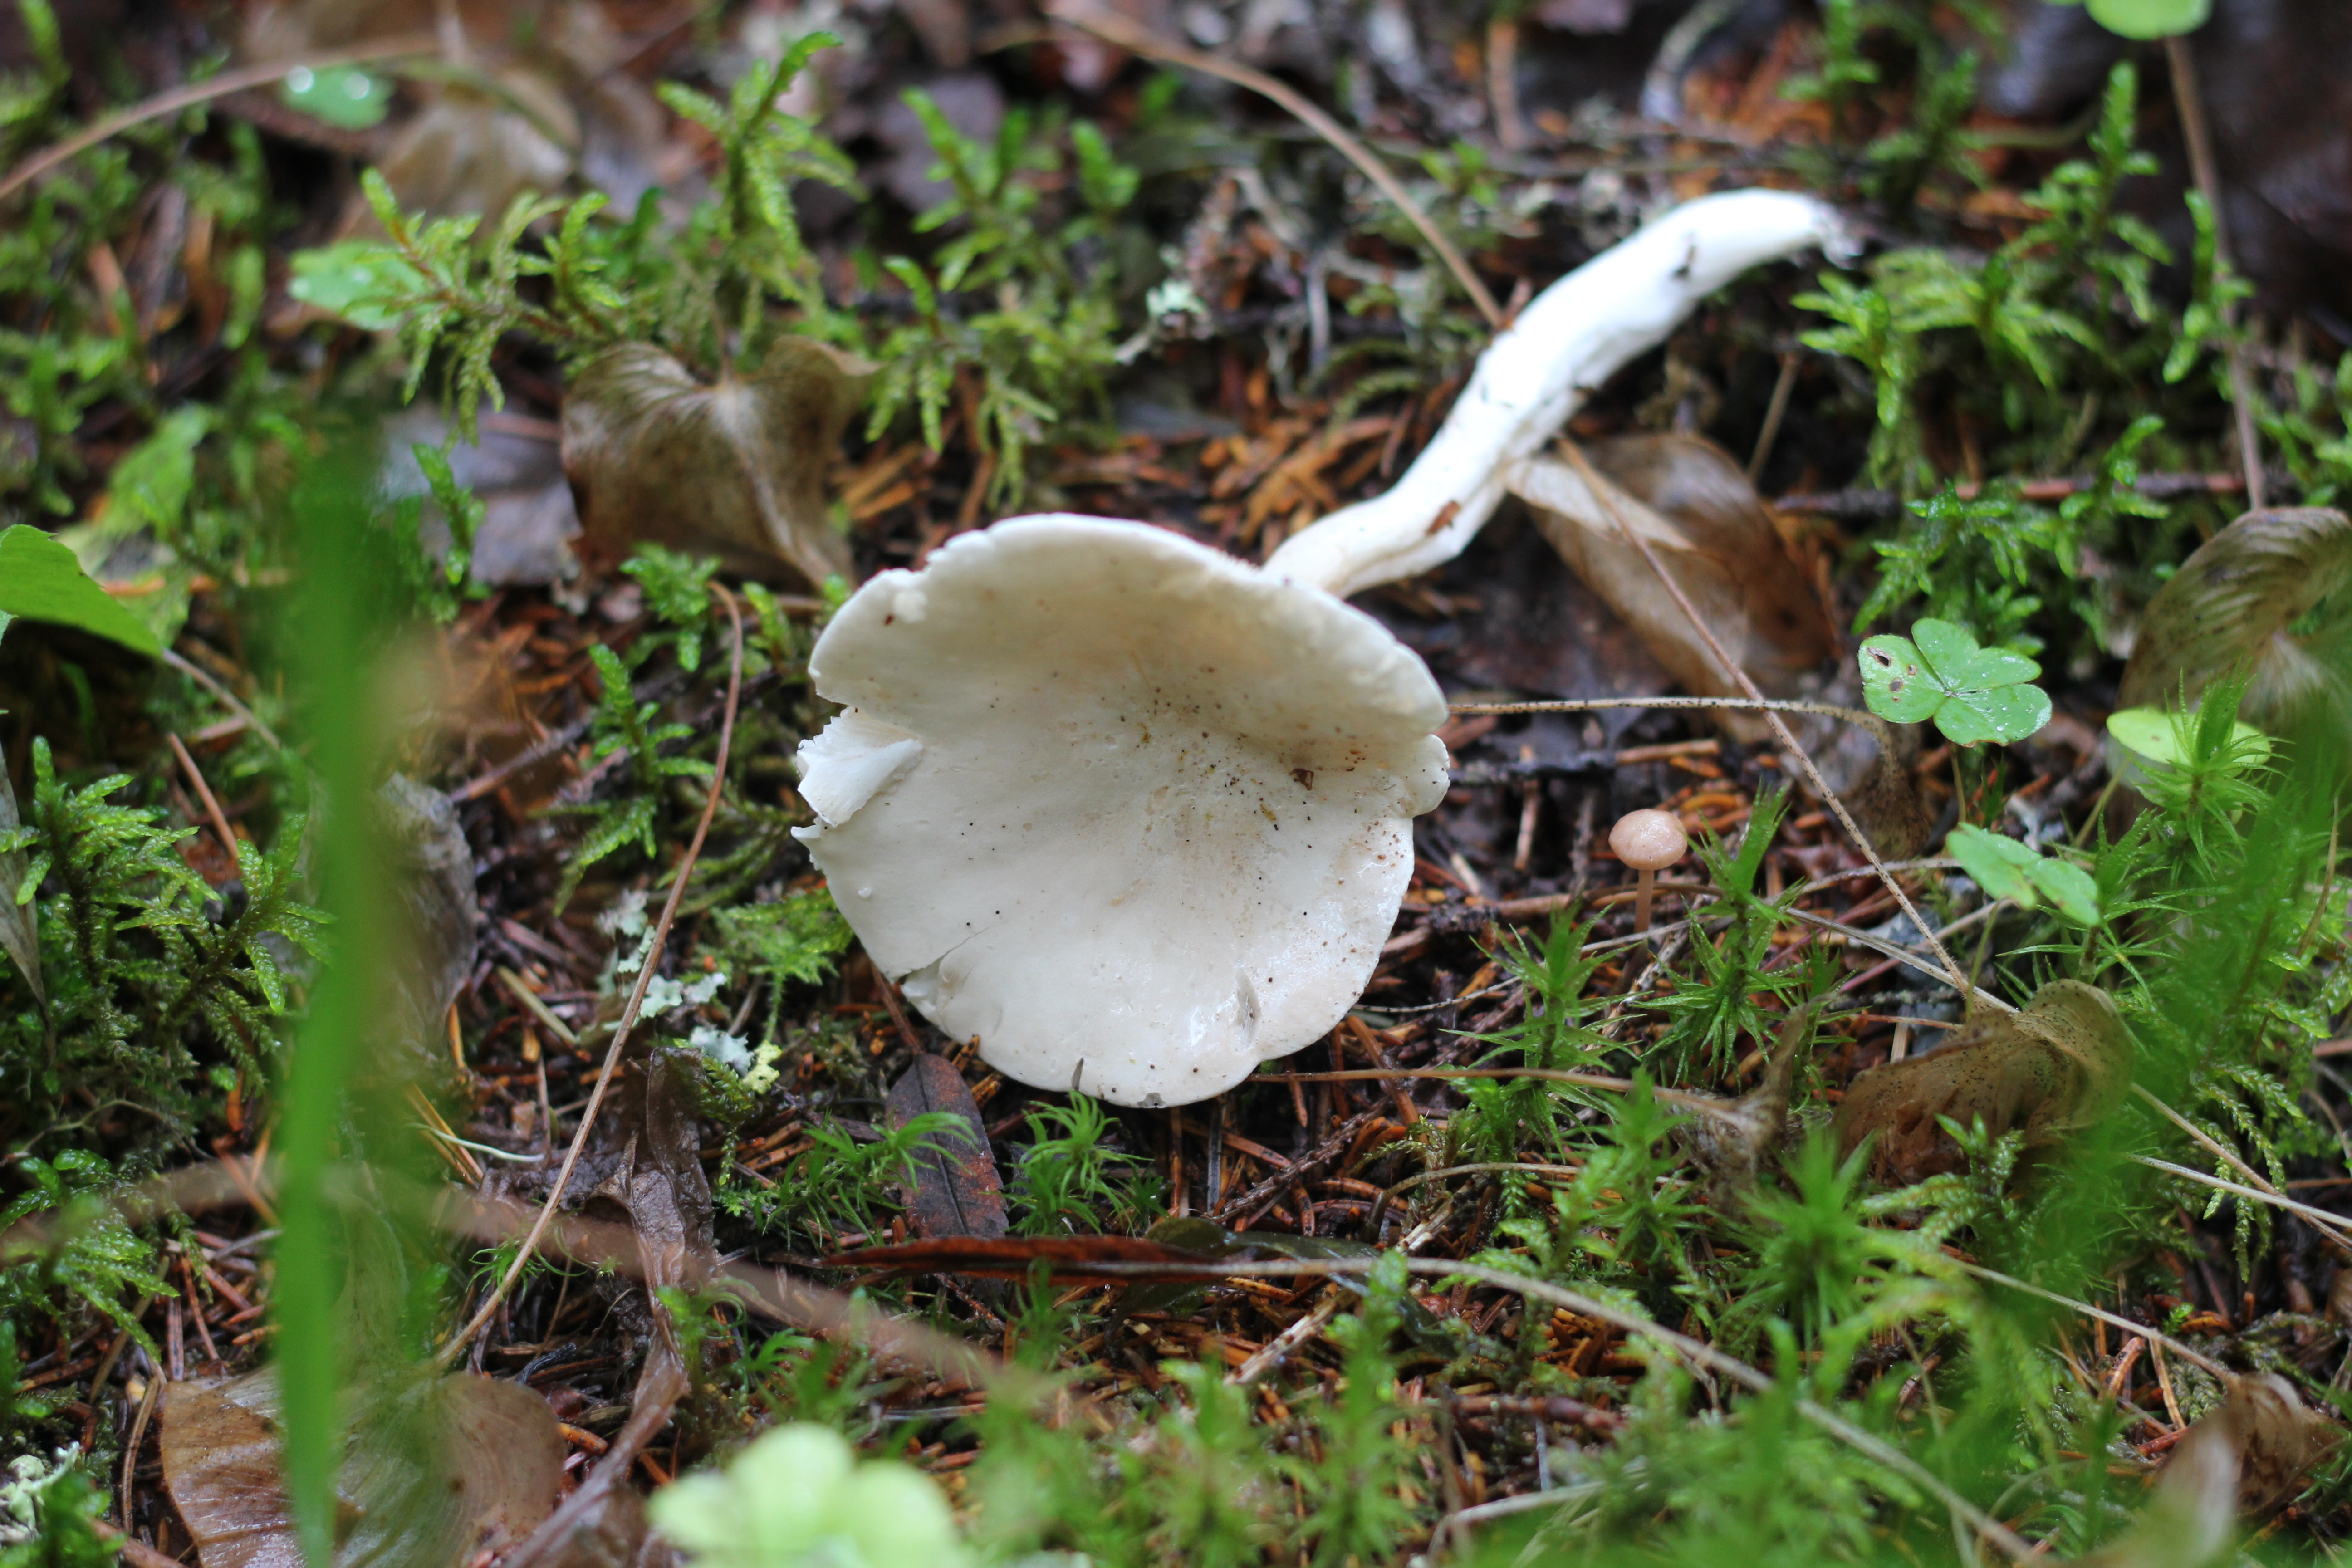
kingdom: Fungi
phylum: Basidiomycota
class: Agaricomycetes
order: Agaricales
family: Entolomataceae
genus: Clitopilus
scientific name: Clitopilus prunulus
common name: The miller
